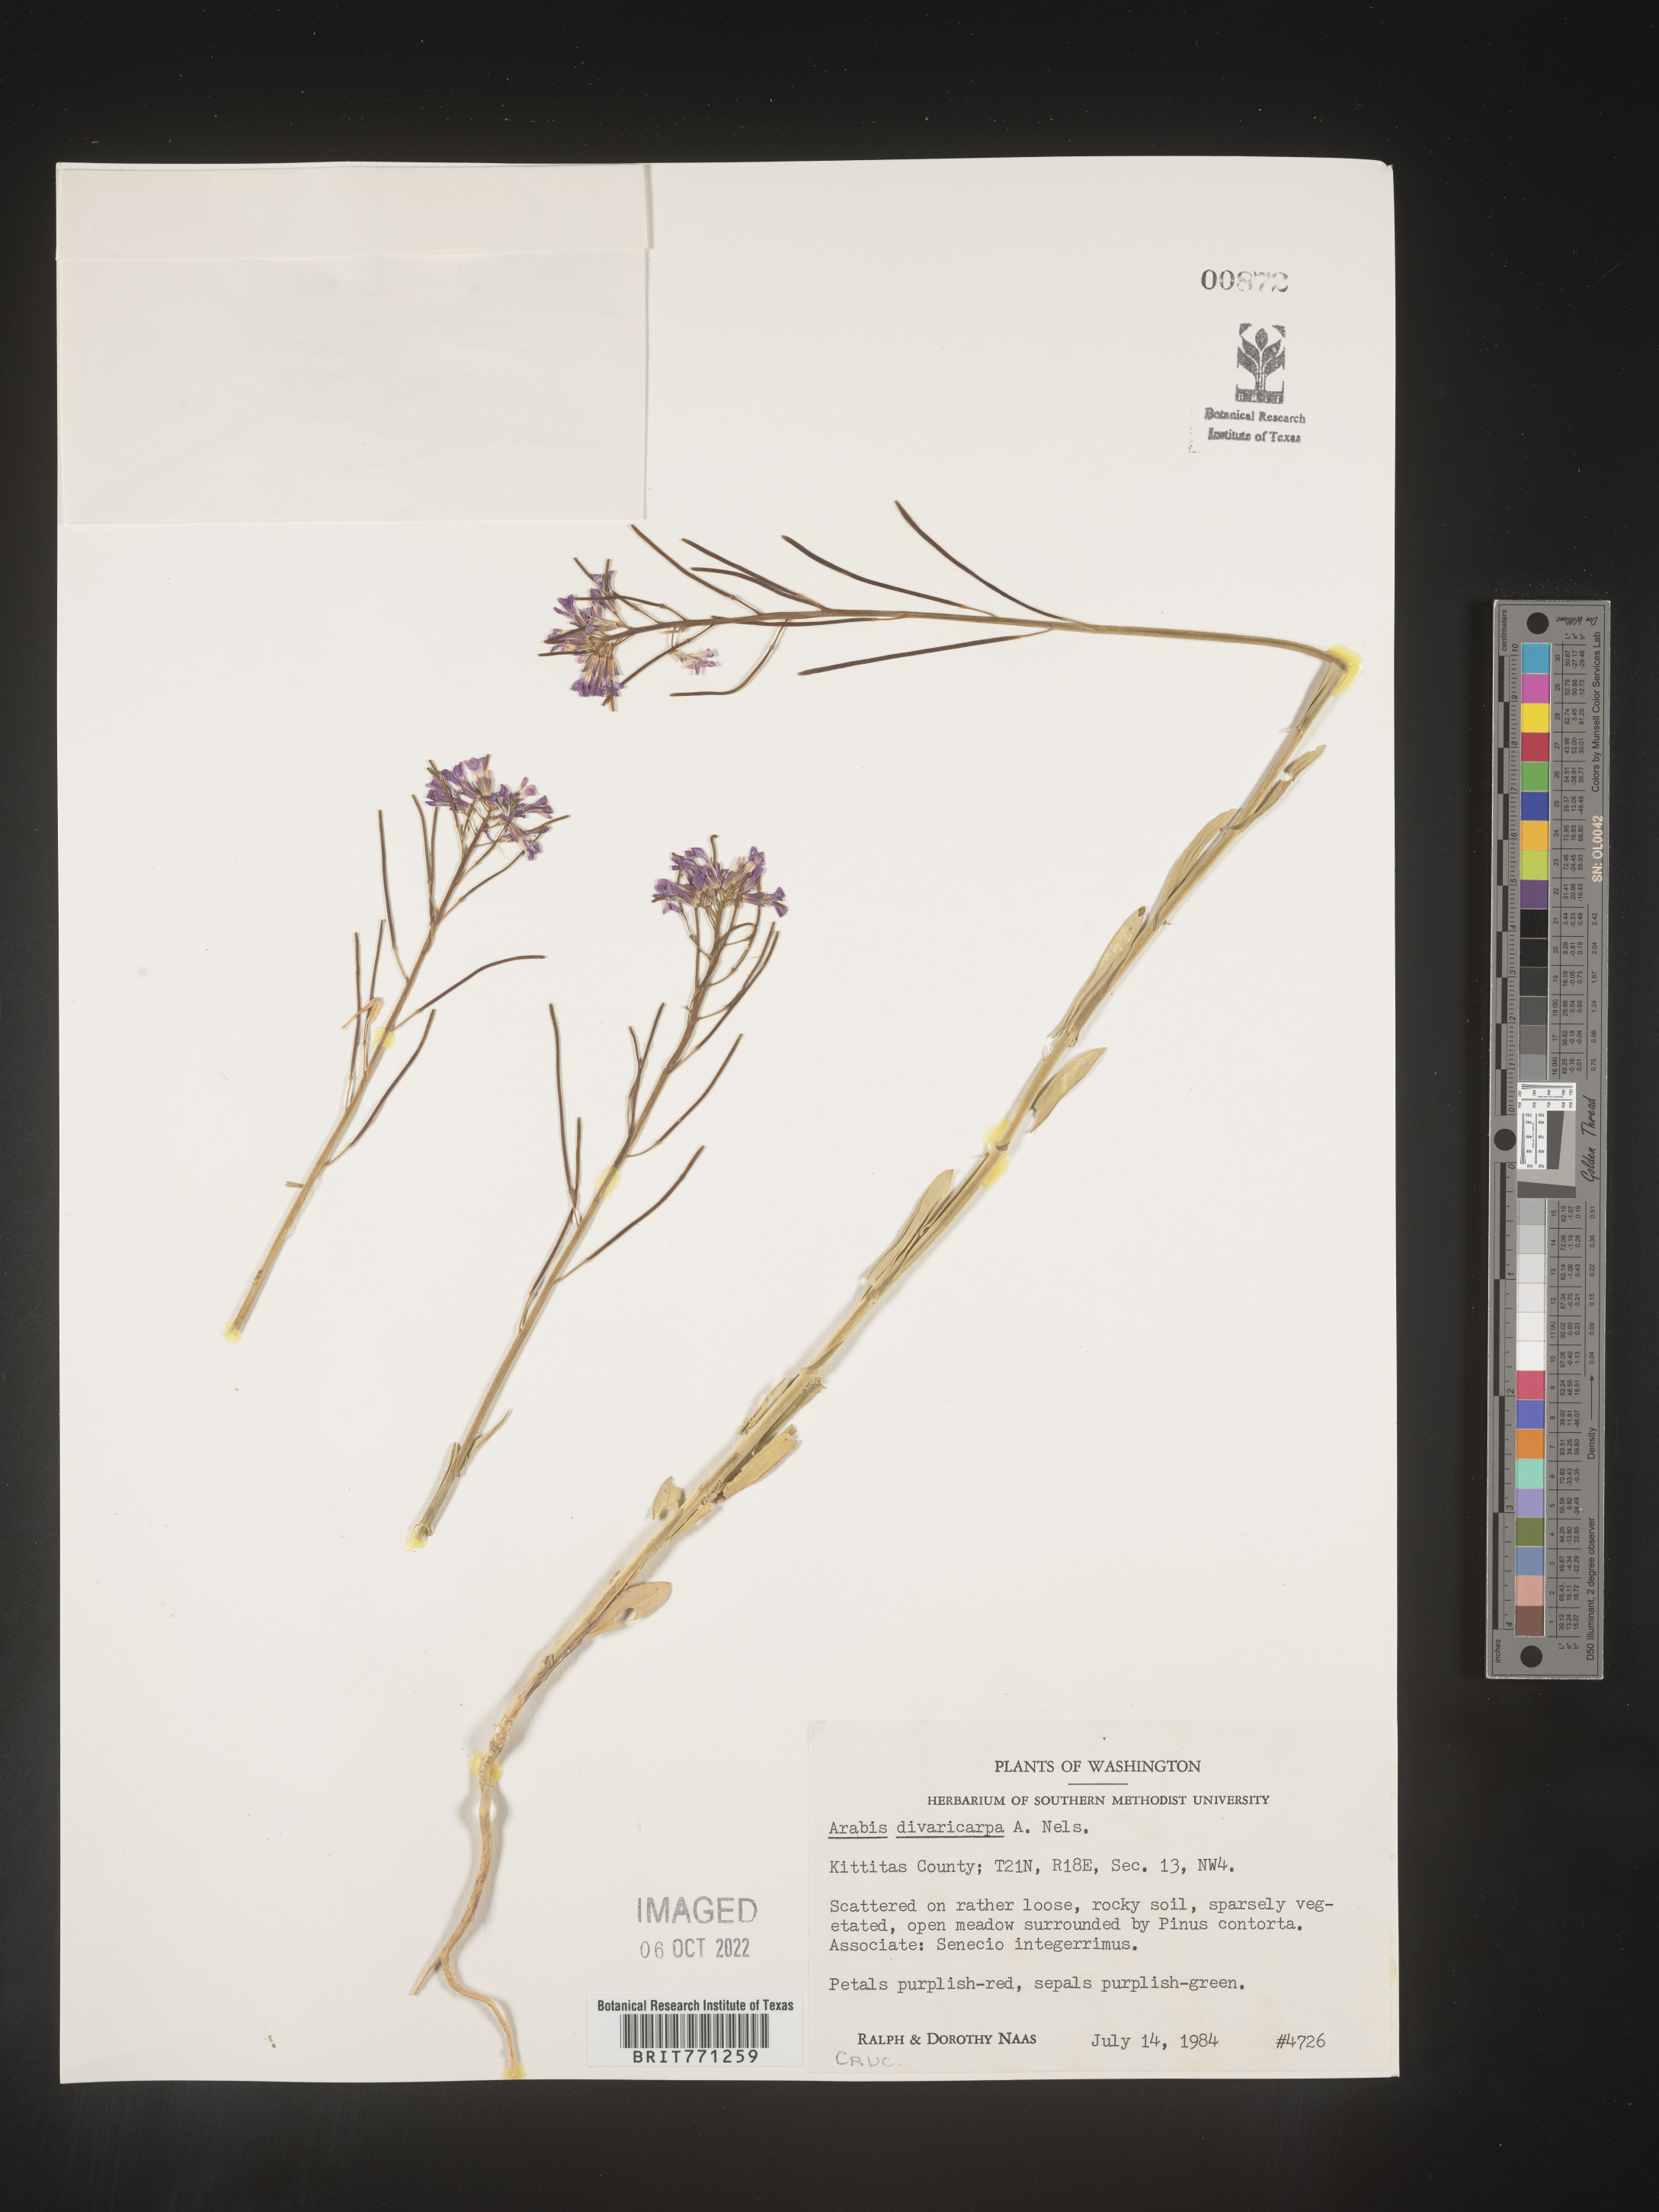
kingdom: Plantae
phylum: Tracheophyta
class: Magnoliopsida
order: Brassicales
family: Brassicaceae
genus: Boechera
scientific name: Boechera divaricarpa
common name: Divaricate rockcress
